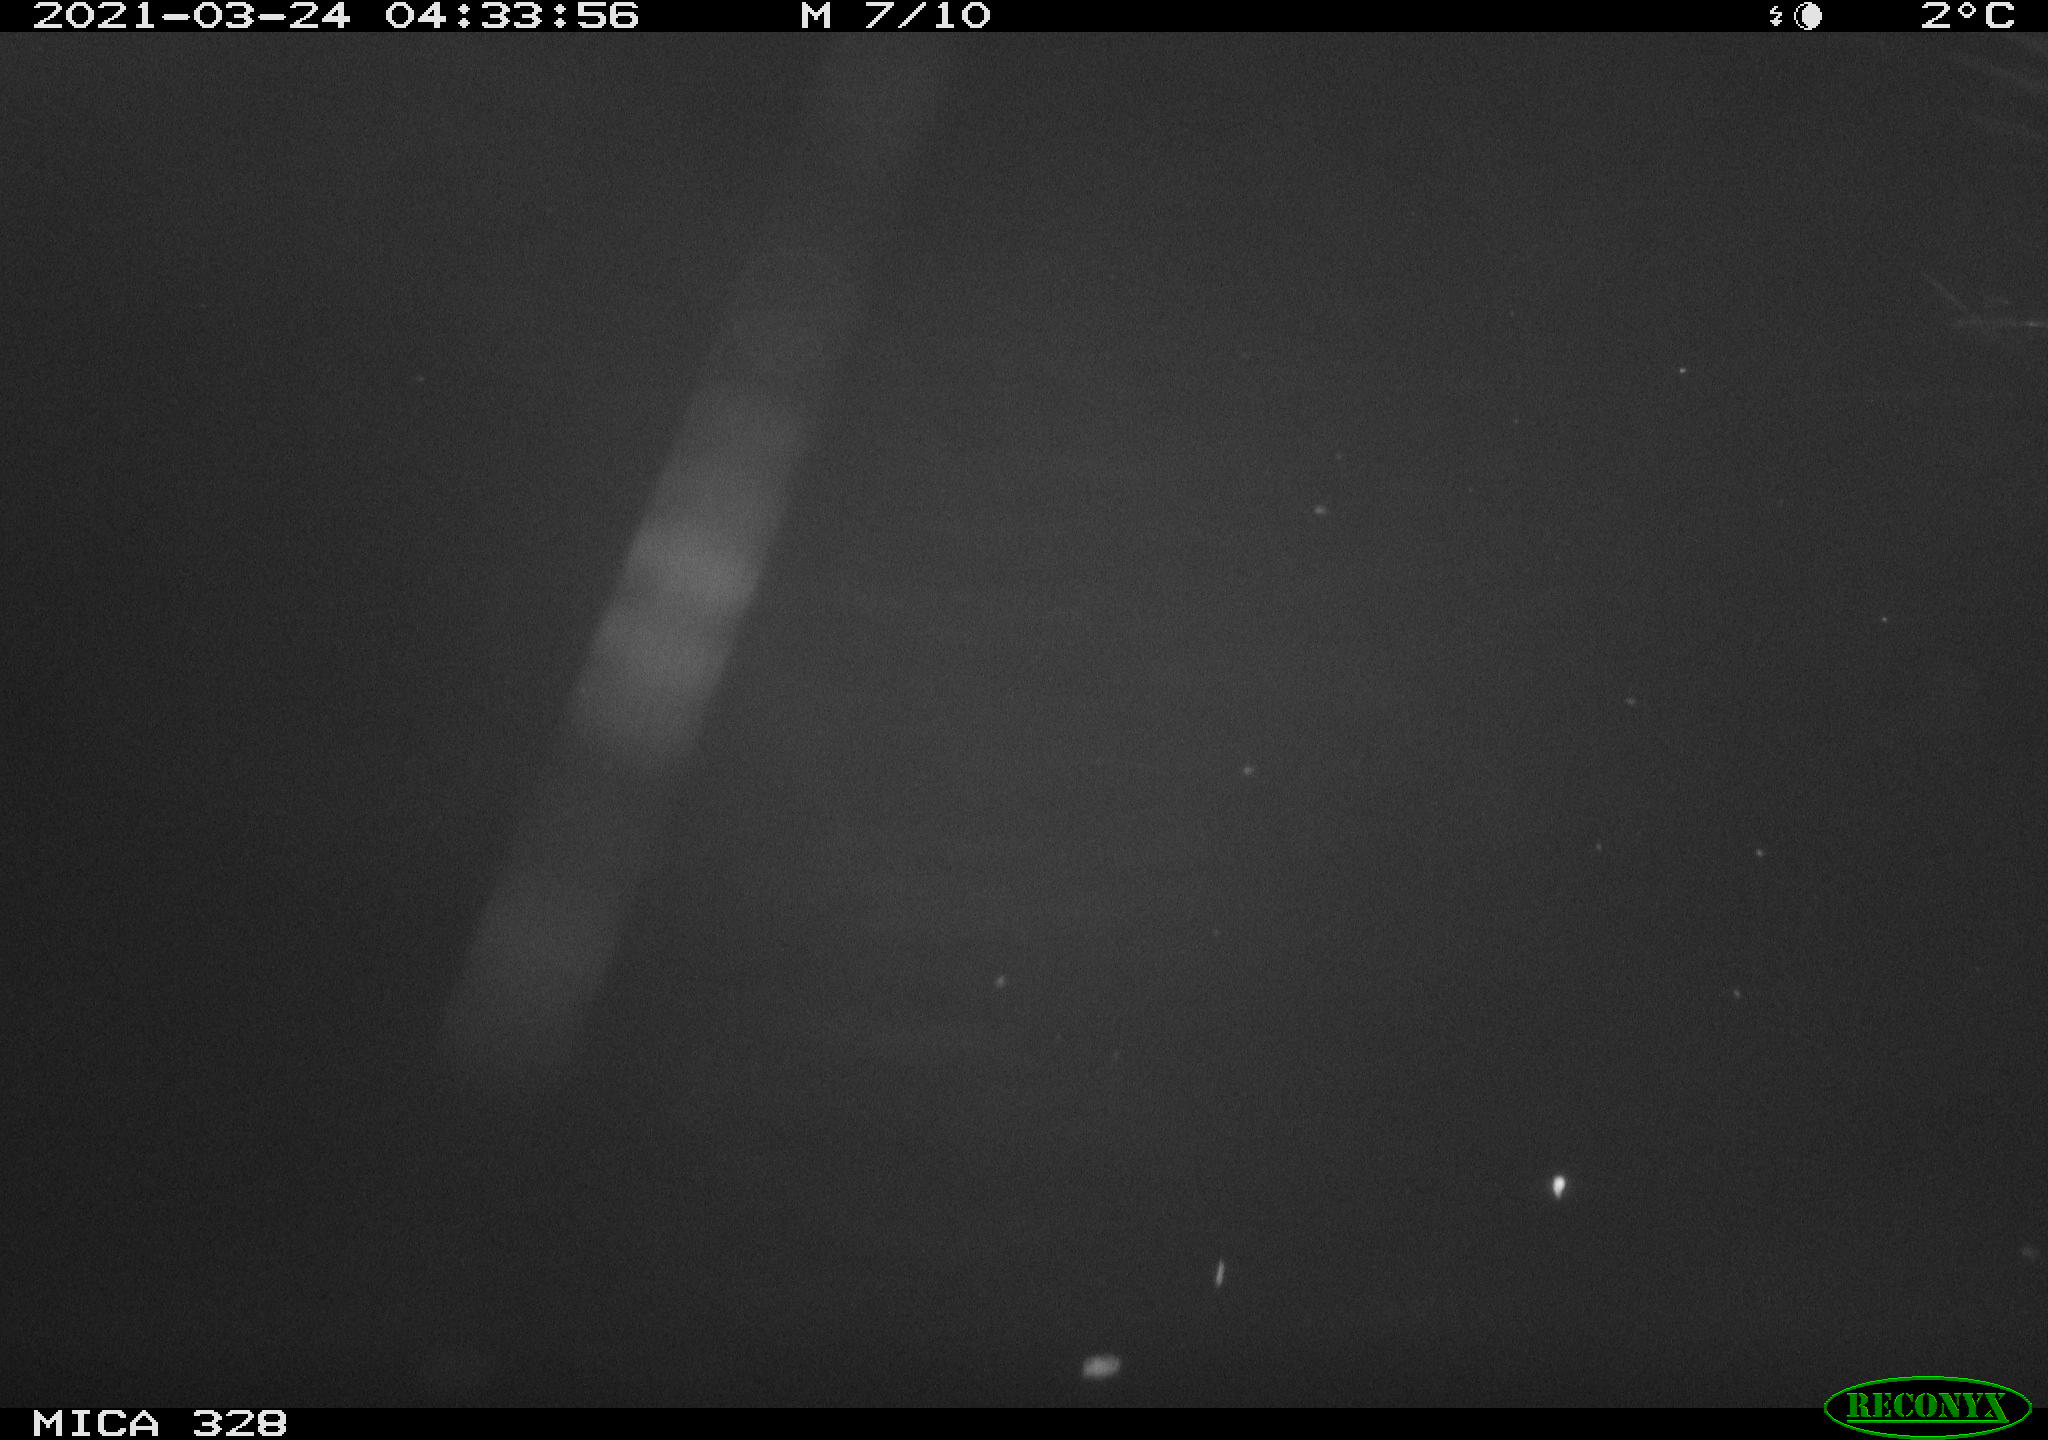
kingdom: Animalia
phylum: Chordata
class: Mammalia
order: Rodentia
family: Cricetidae
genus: Ondatra
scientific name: Ondatra zibethicus
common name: Muskrat
